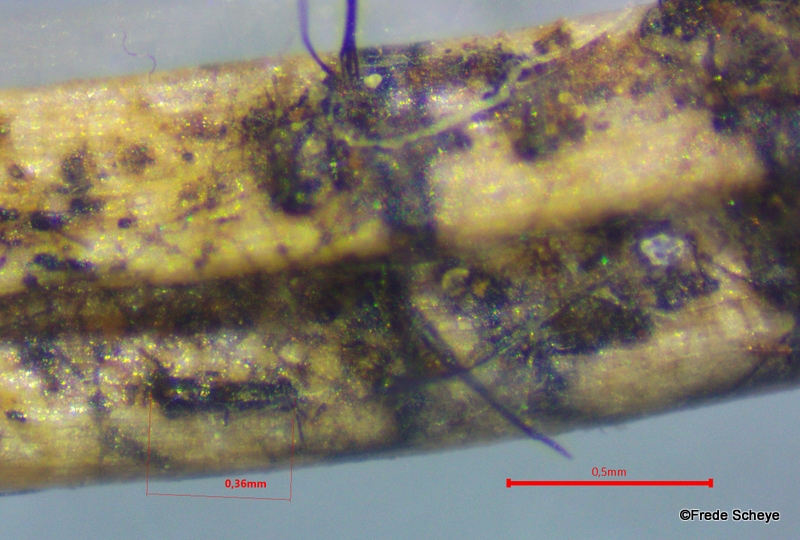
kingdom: Fungi
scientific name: Fungi
